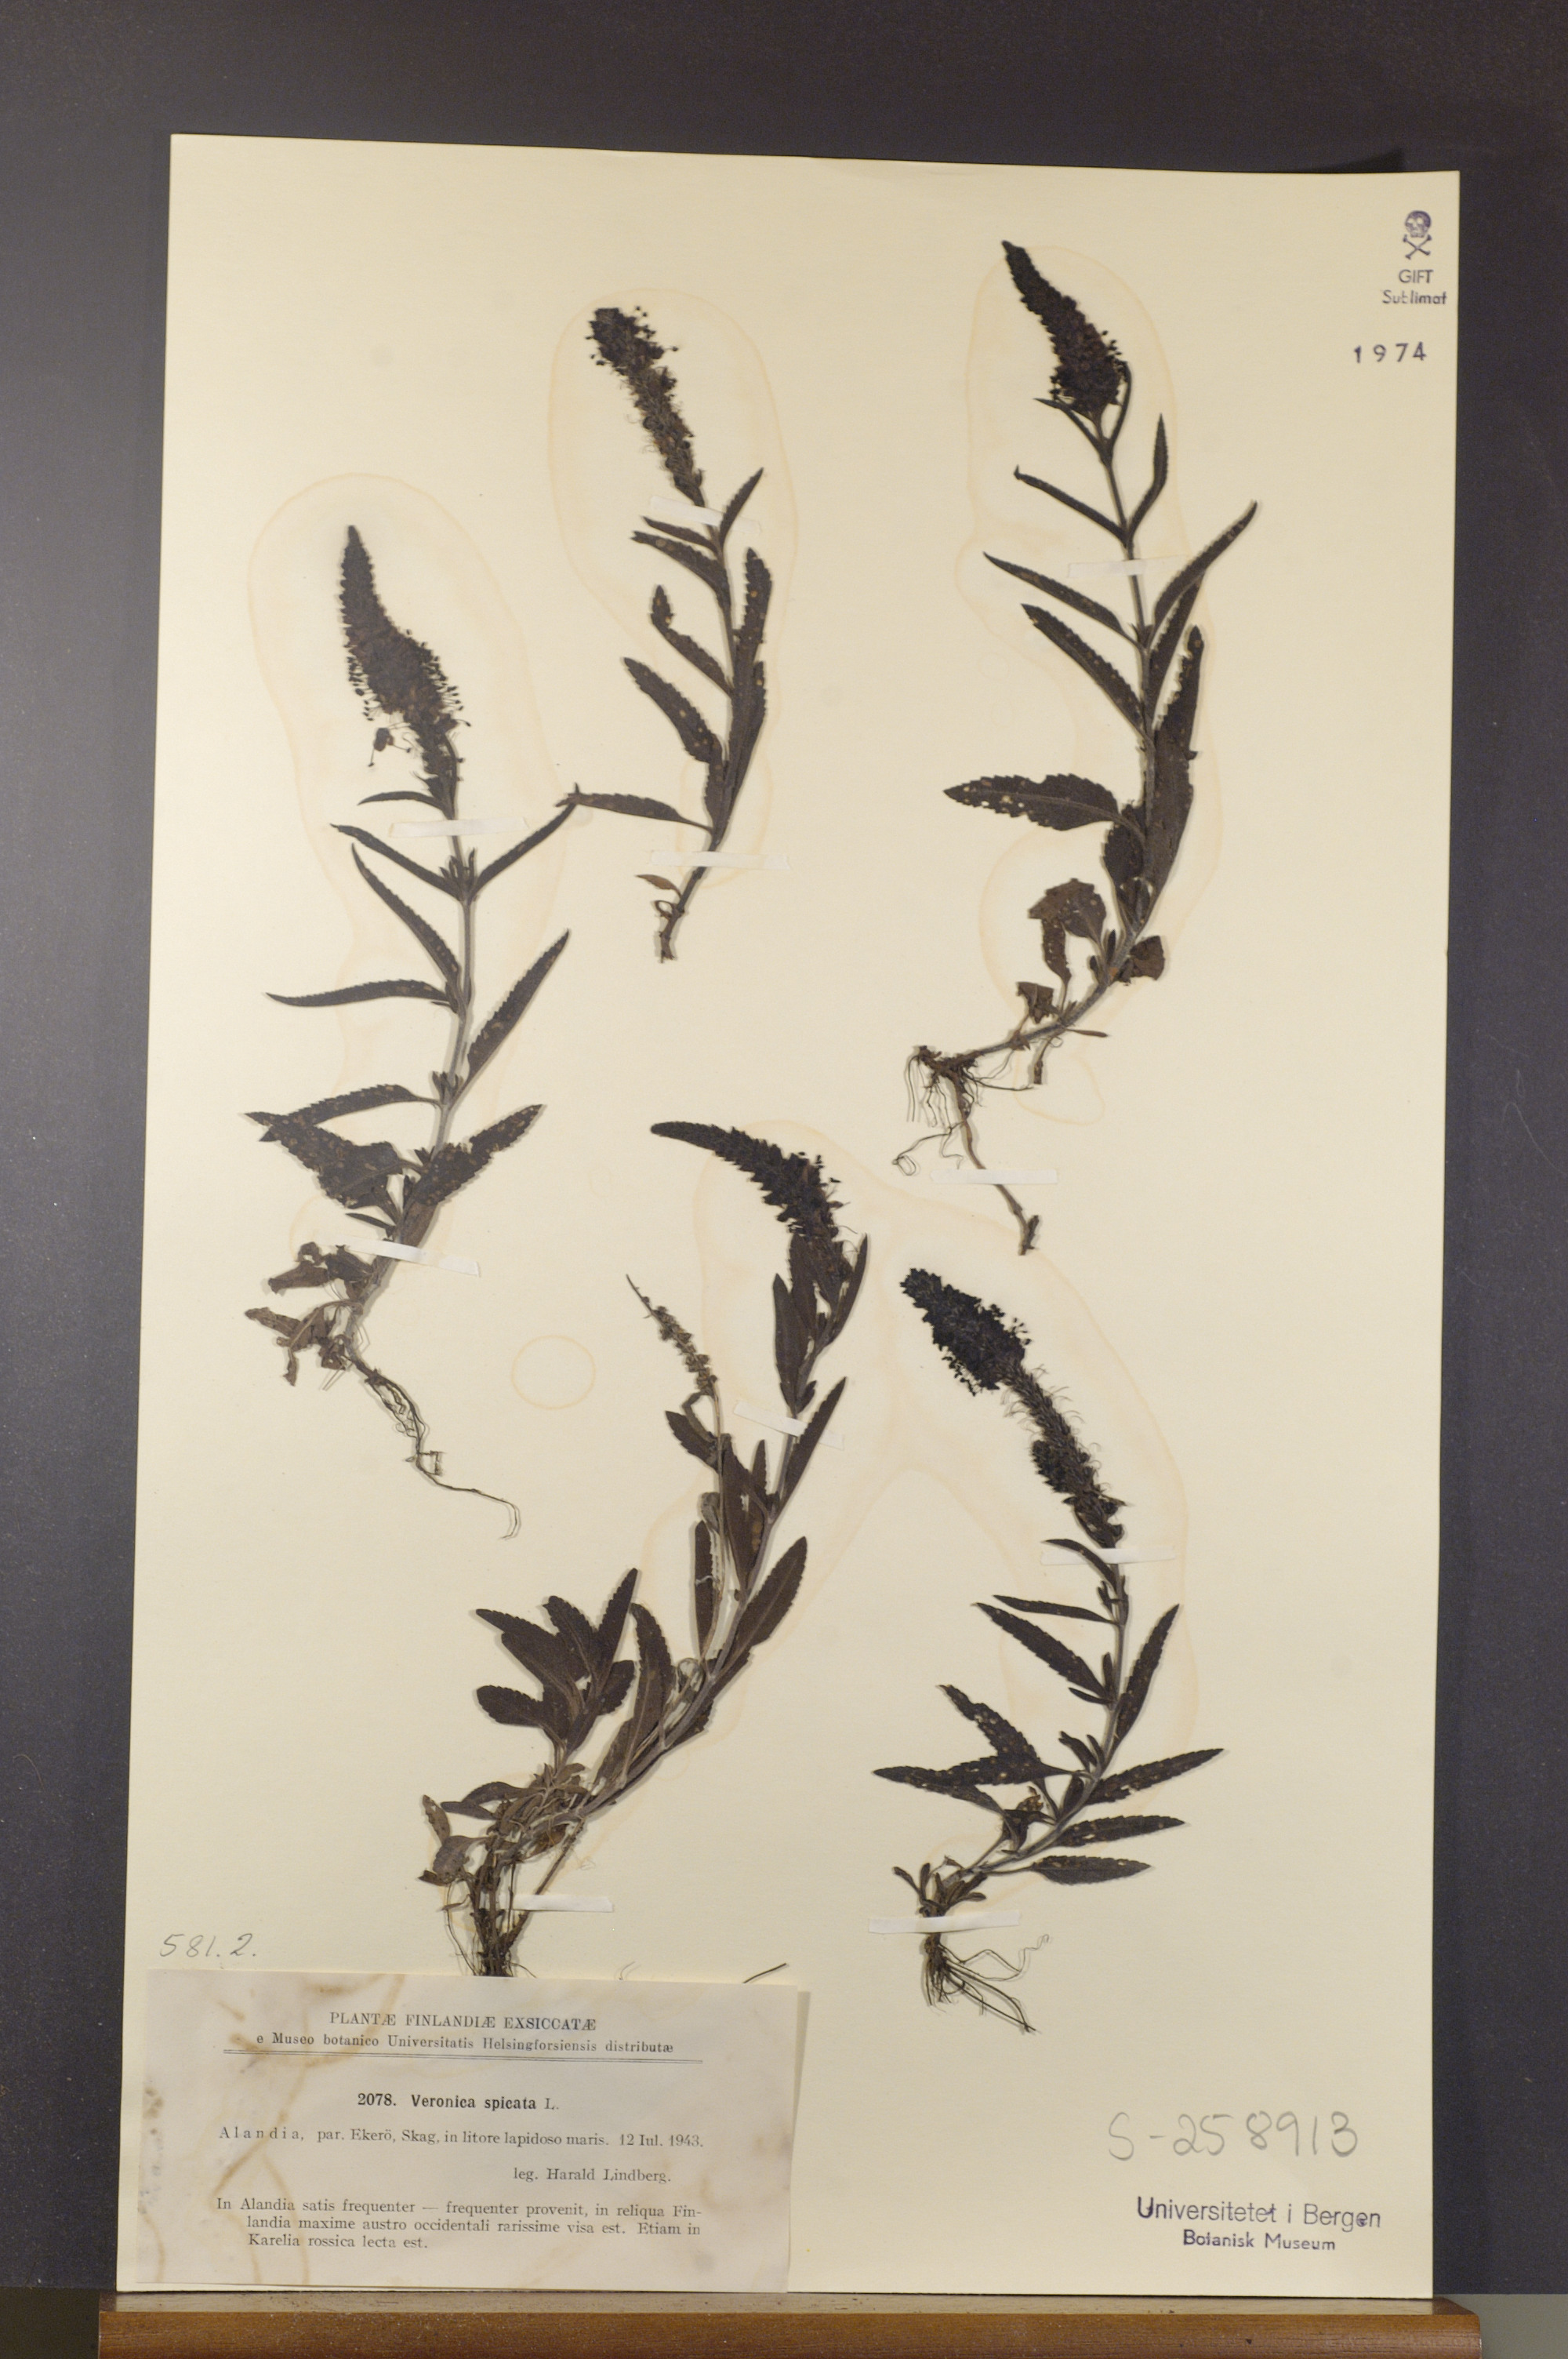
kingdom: Plantae
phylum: Tracheophyta
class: Magnoliopsida
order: Lamiales
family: Plantaginaceae
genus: Veronica
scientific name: Veronica spicata
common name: Spiked speedwell
